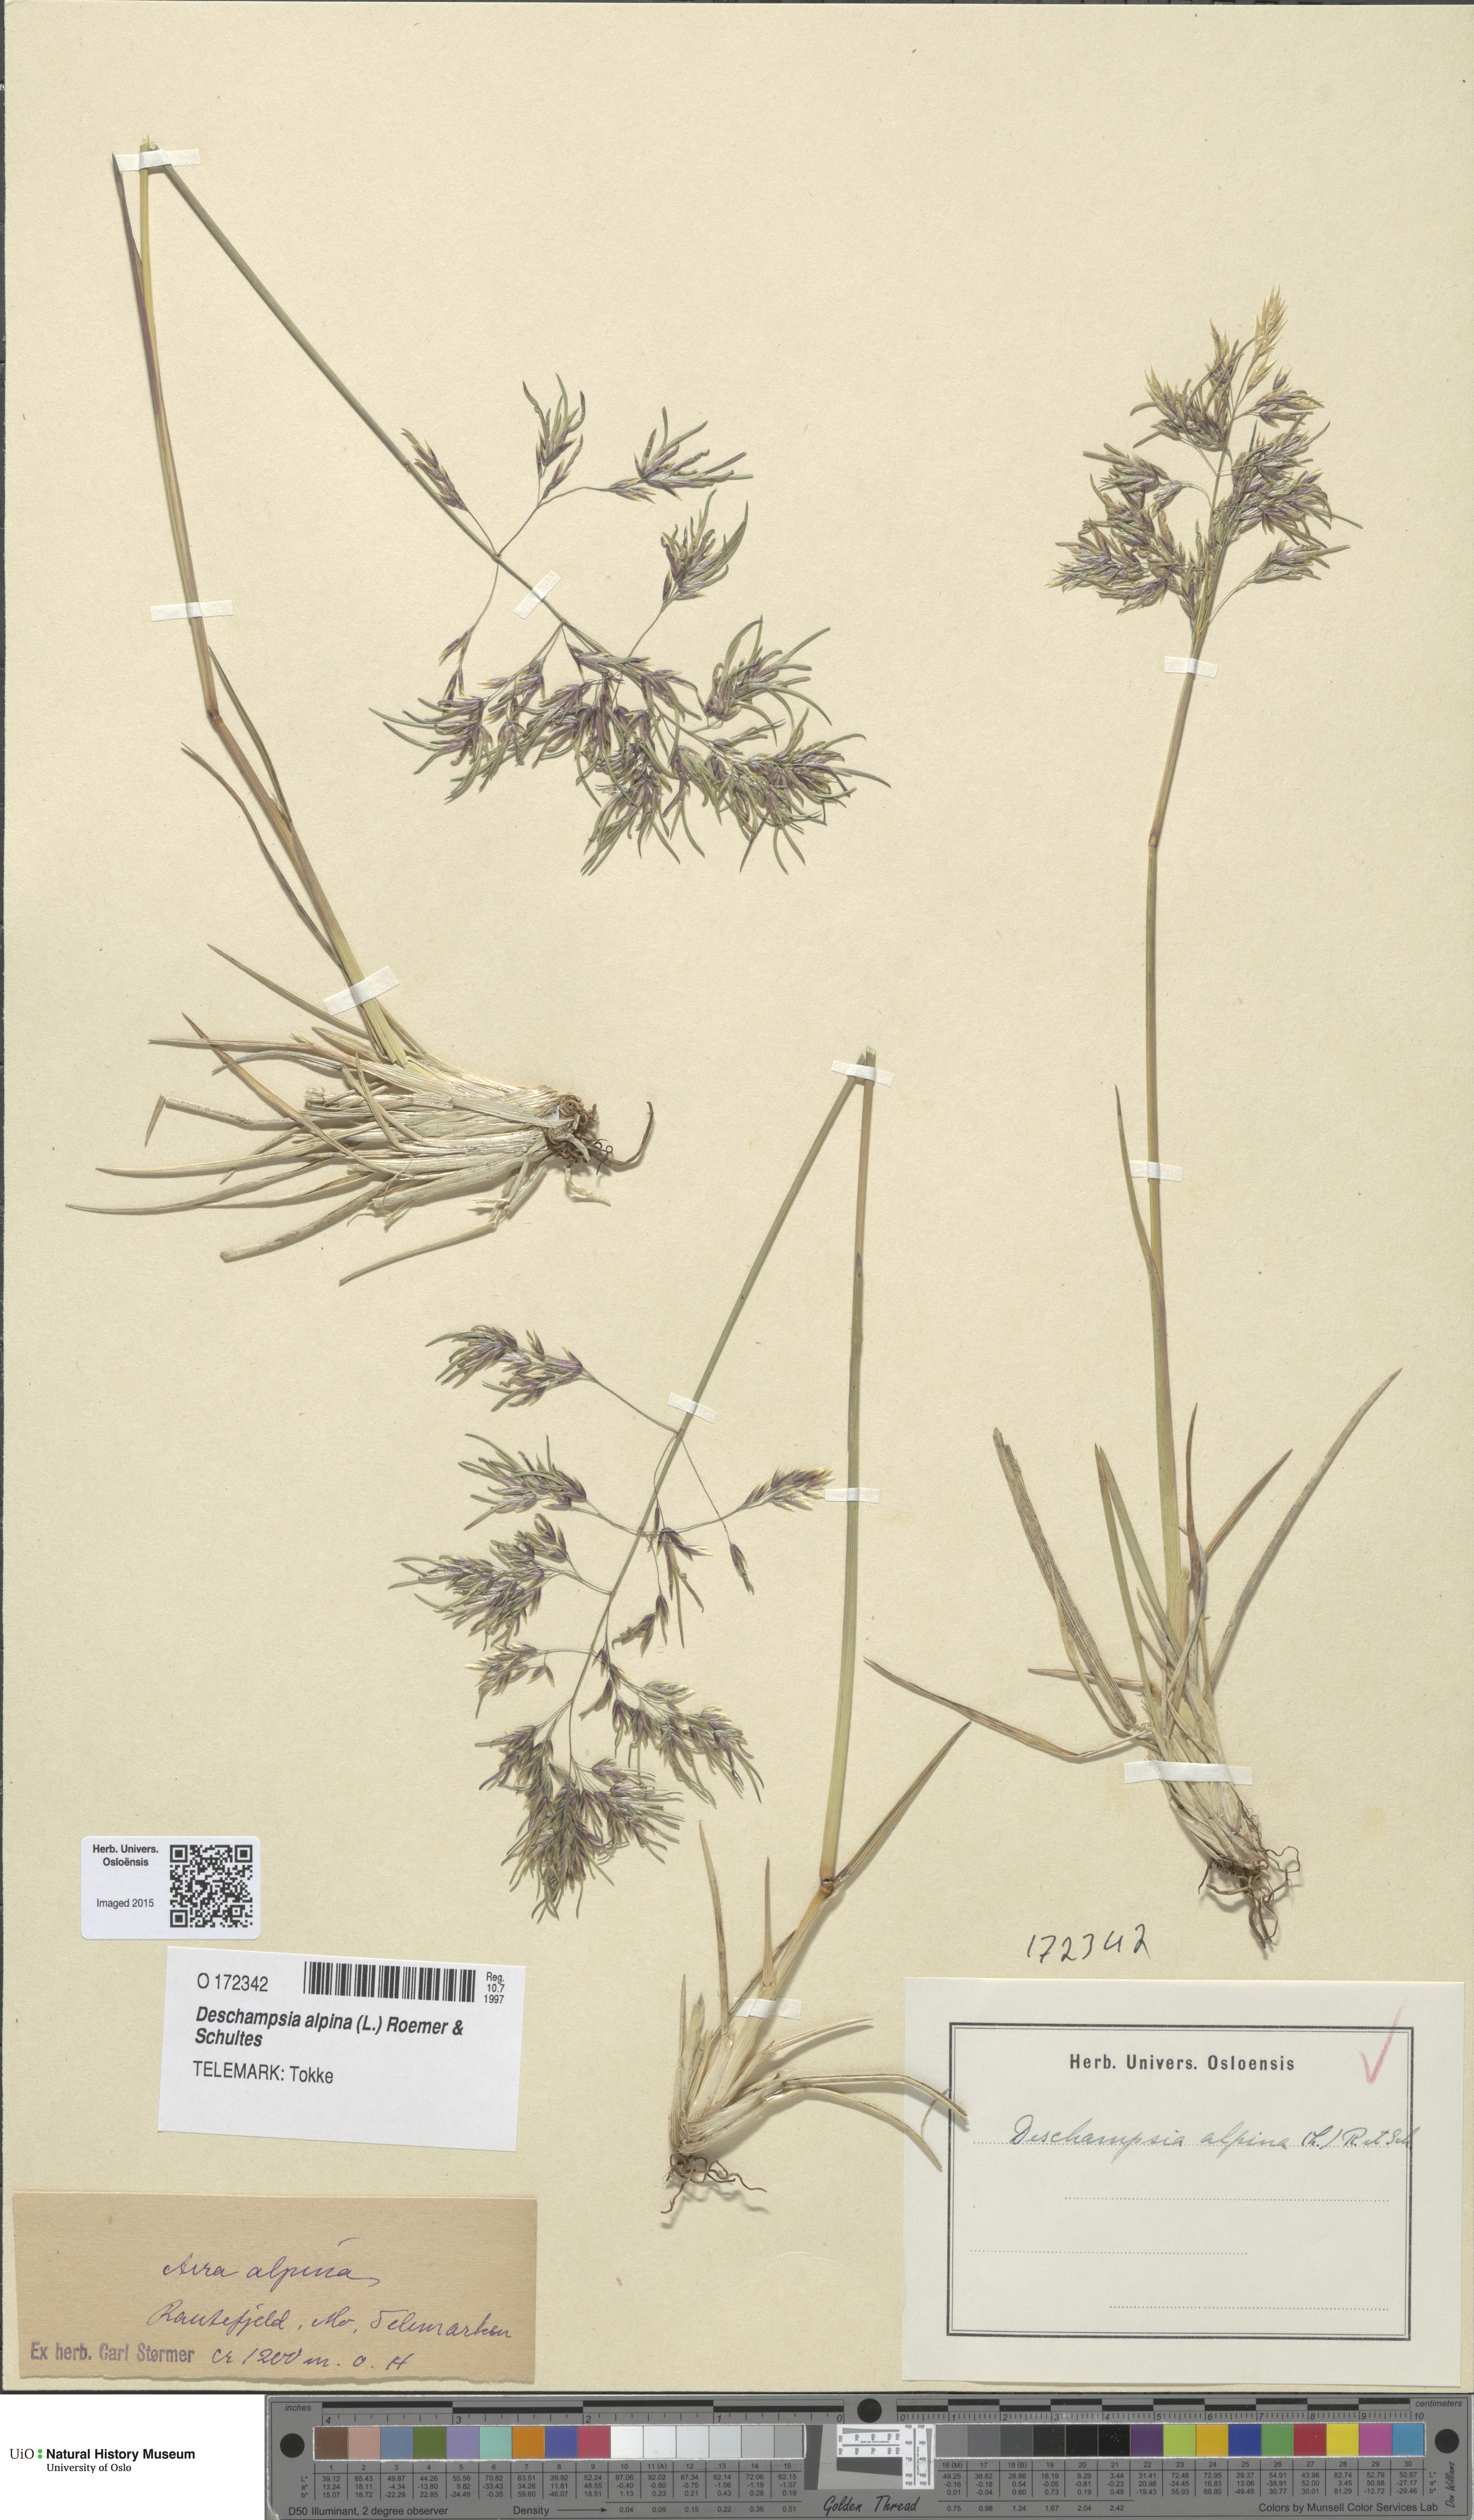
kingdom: Plantae
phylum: Tracheophyta
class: Liliopsida
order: Poales
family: Poaceae
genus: Deschampsia
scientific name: Deschampsia cespitosa
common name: Tufted hair-grass
